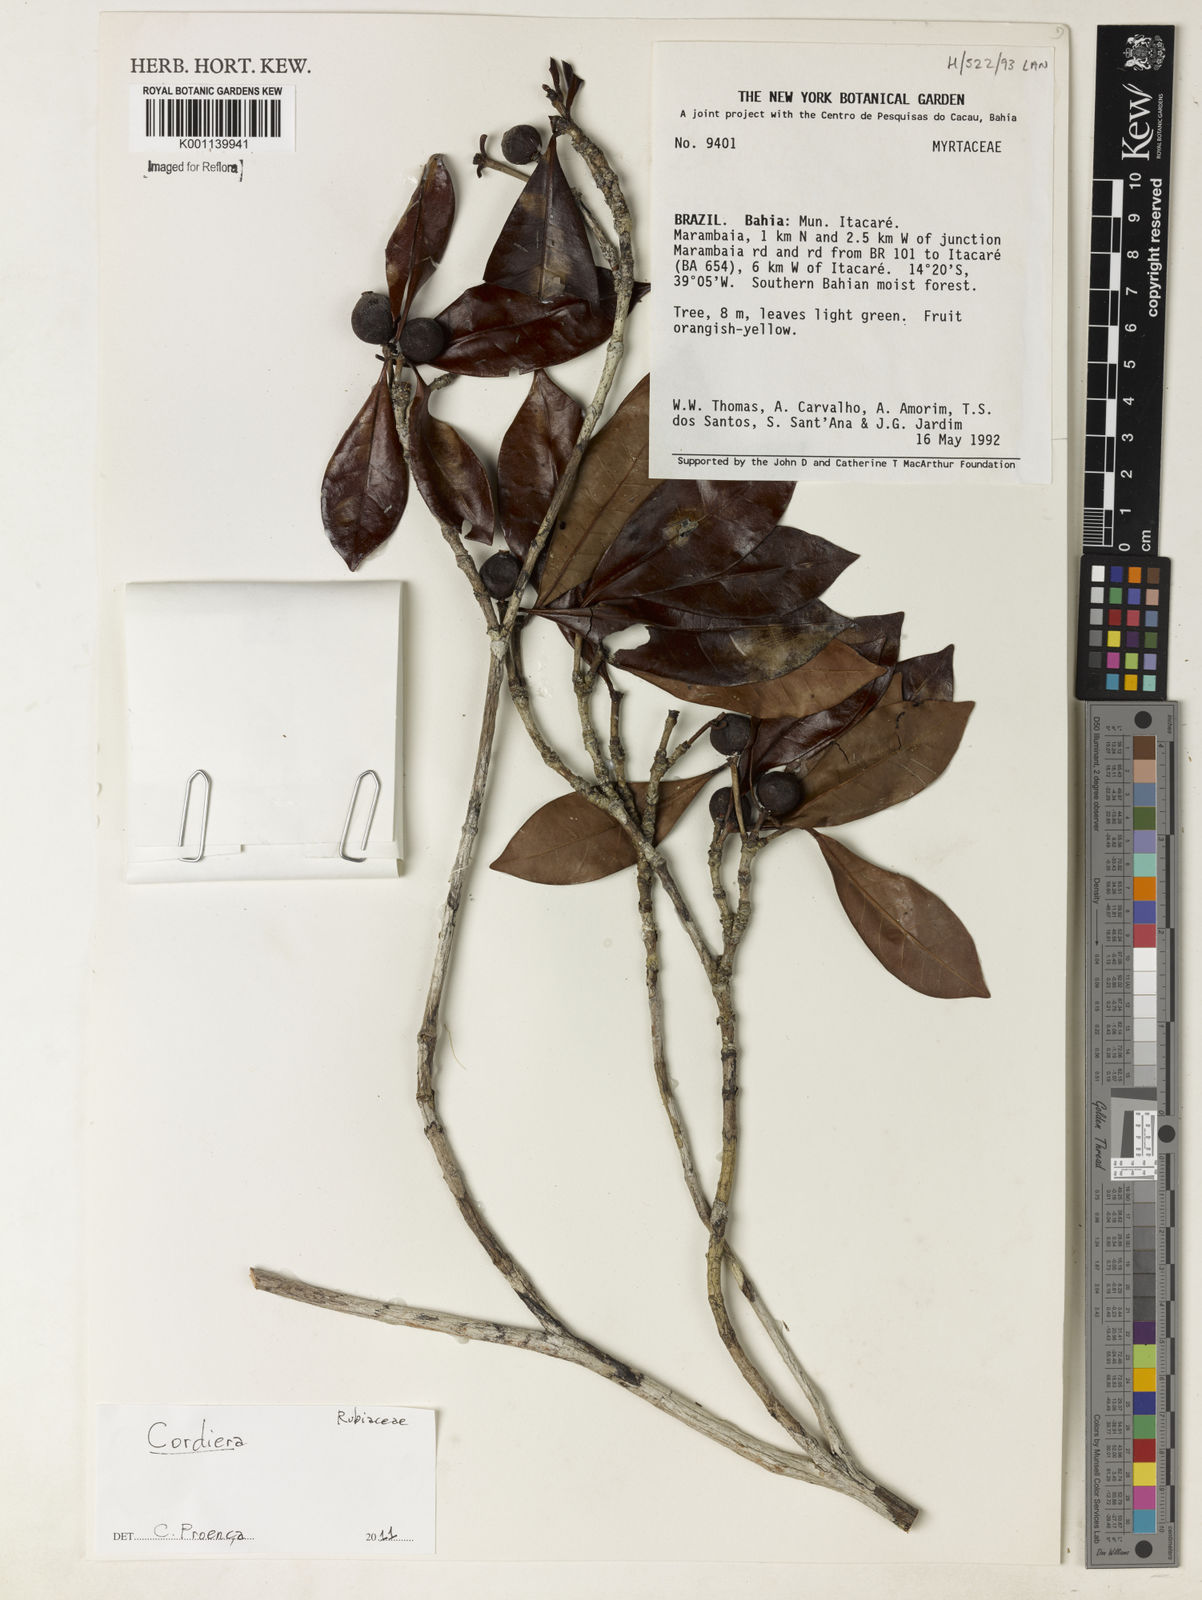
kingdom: Plantae
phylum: Tracheophyta
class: Magnoliopsida
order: Gentianales
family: Rubiaceae
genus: Alibertia
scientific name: Alibertia
